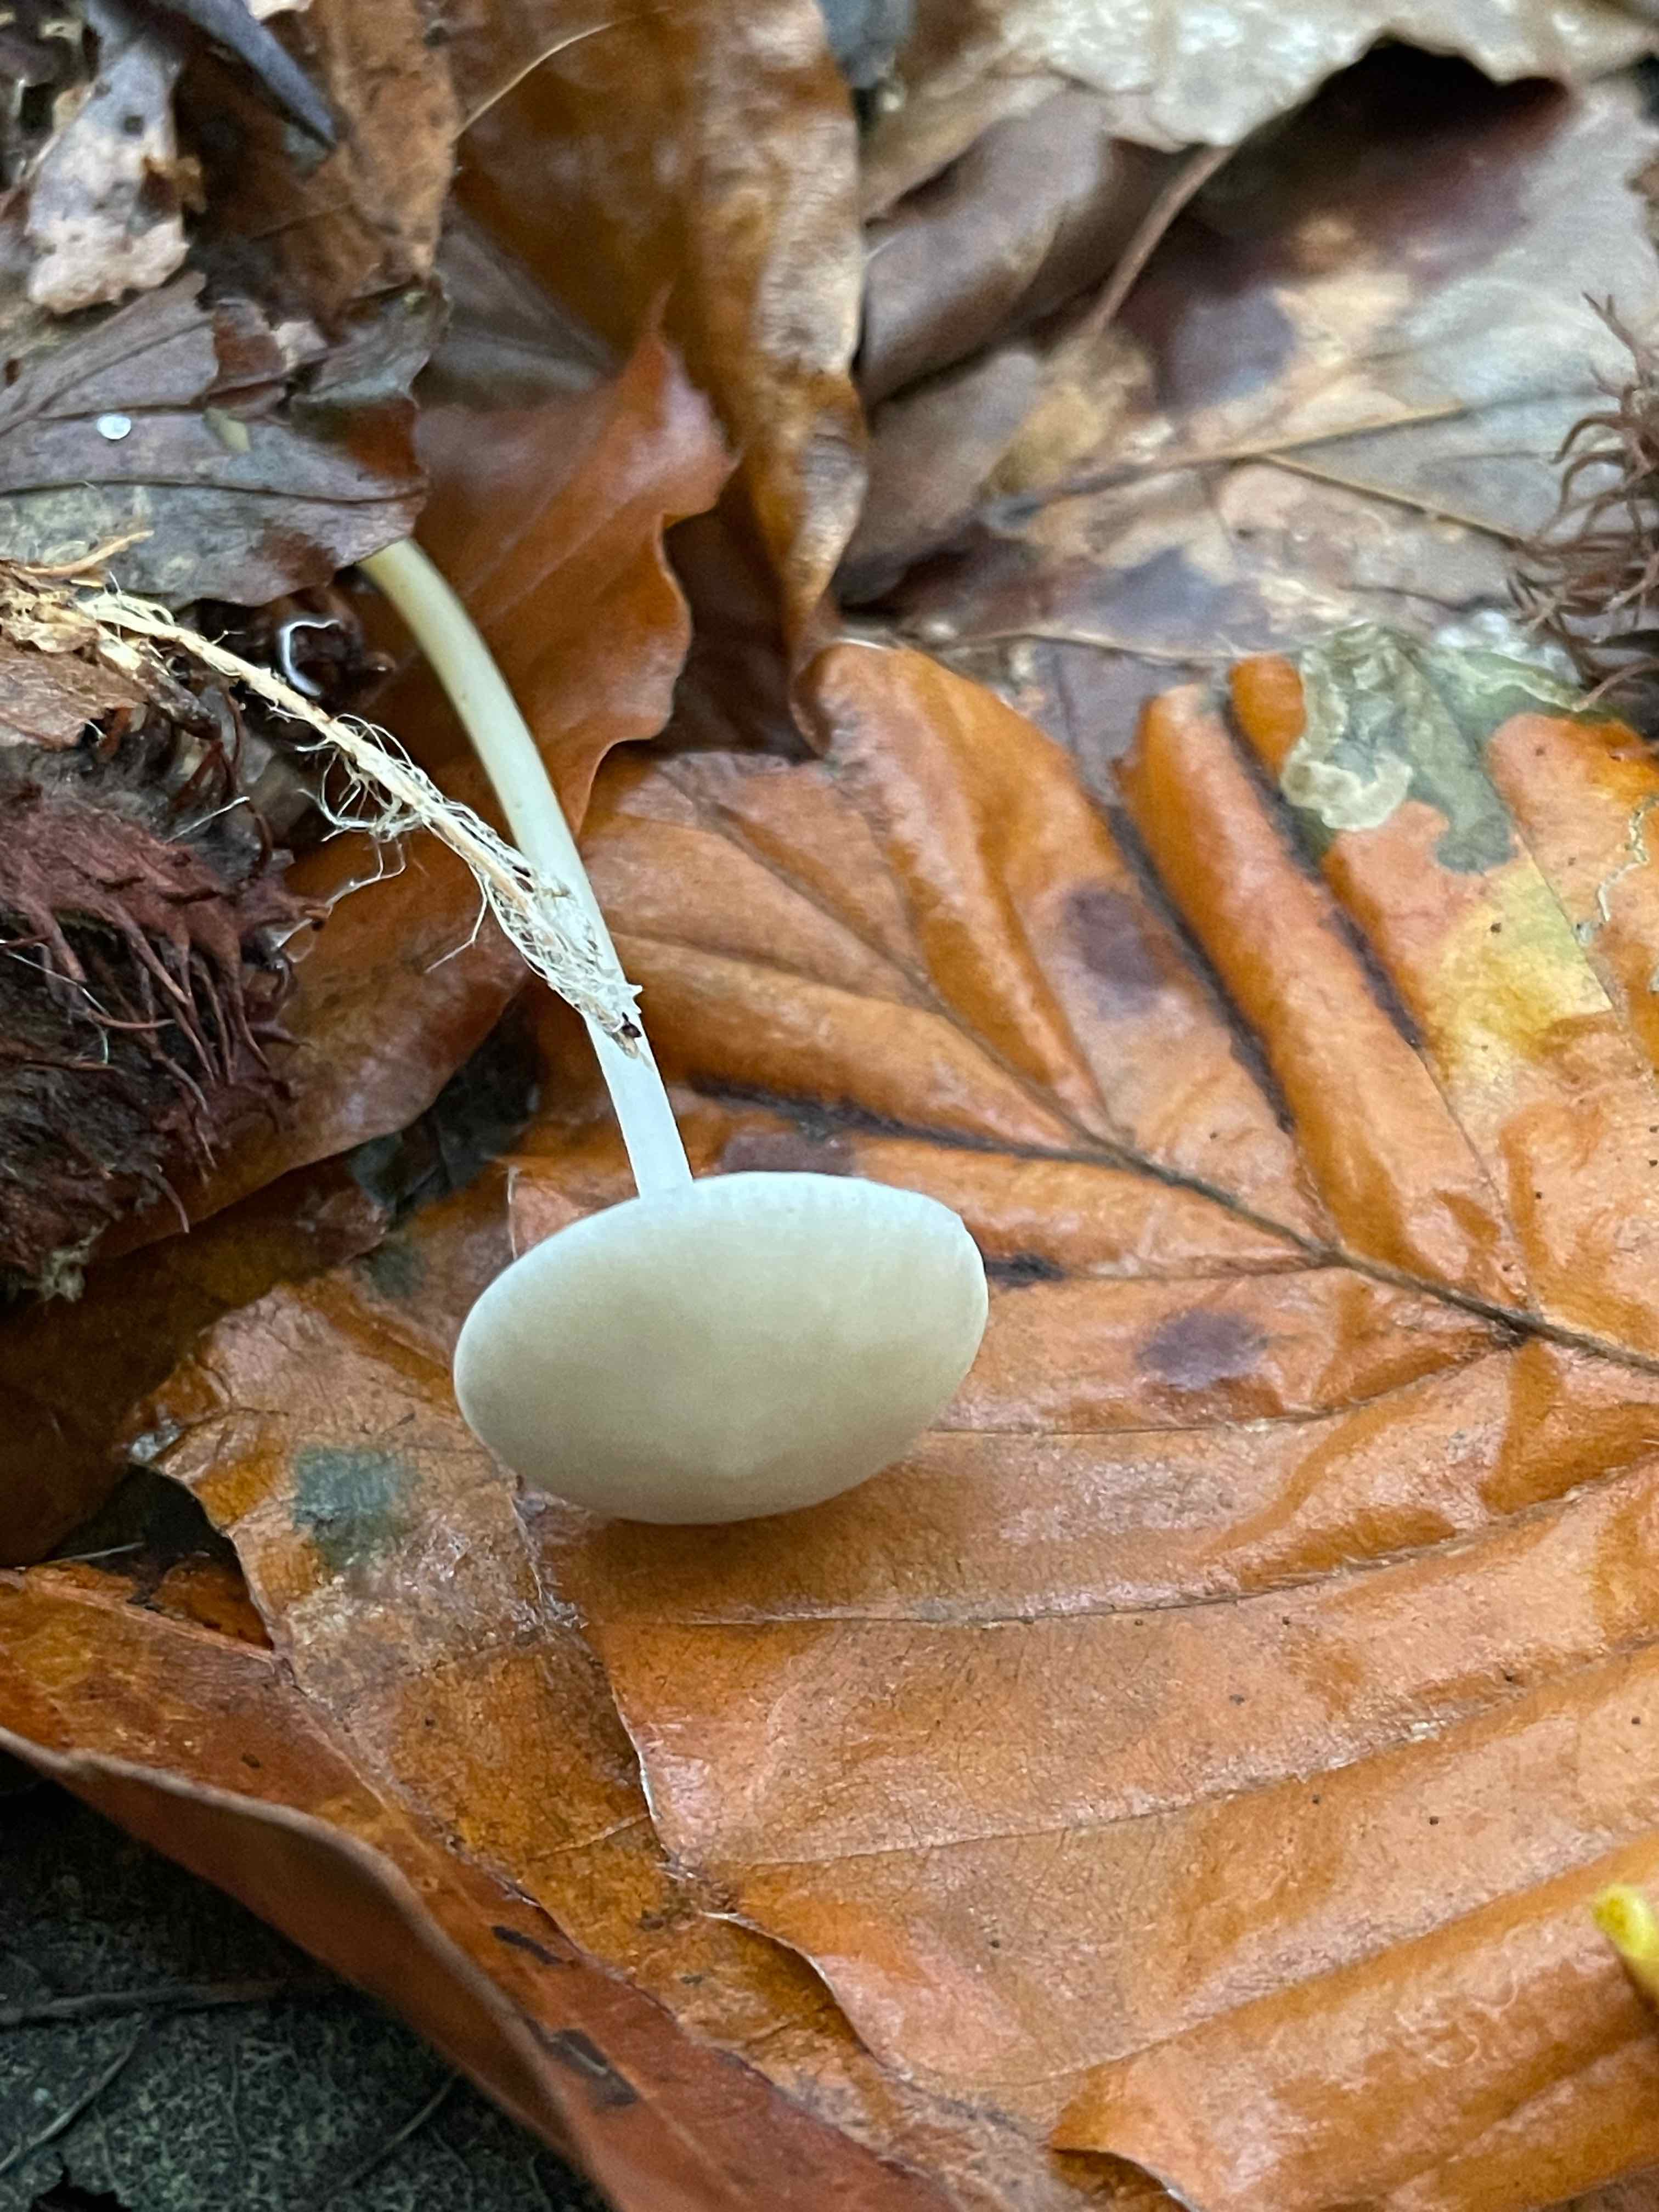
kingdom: Fungi
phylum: Basidiomycota
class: Agaricomycetes
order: Agaricales
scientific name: Agaricales
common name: champignonordenen
